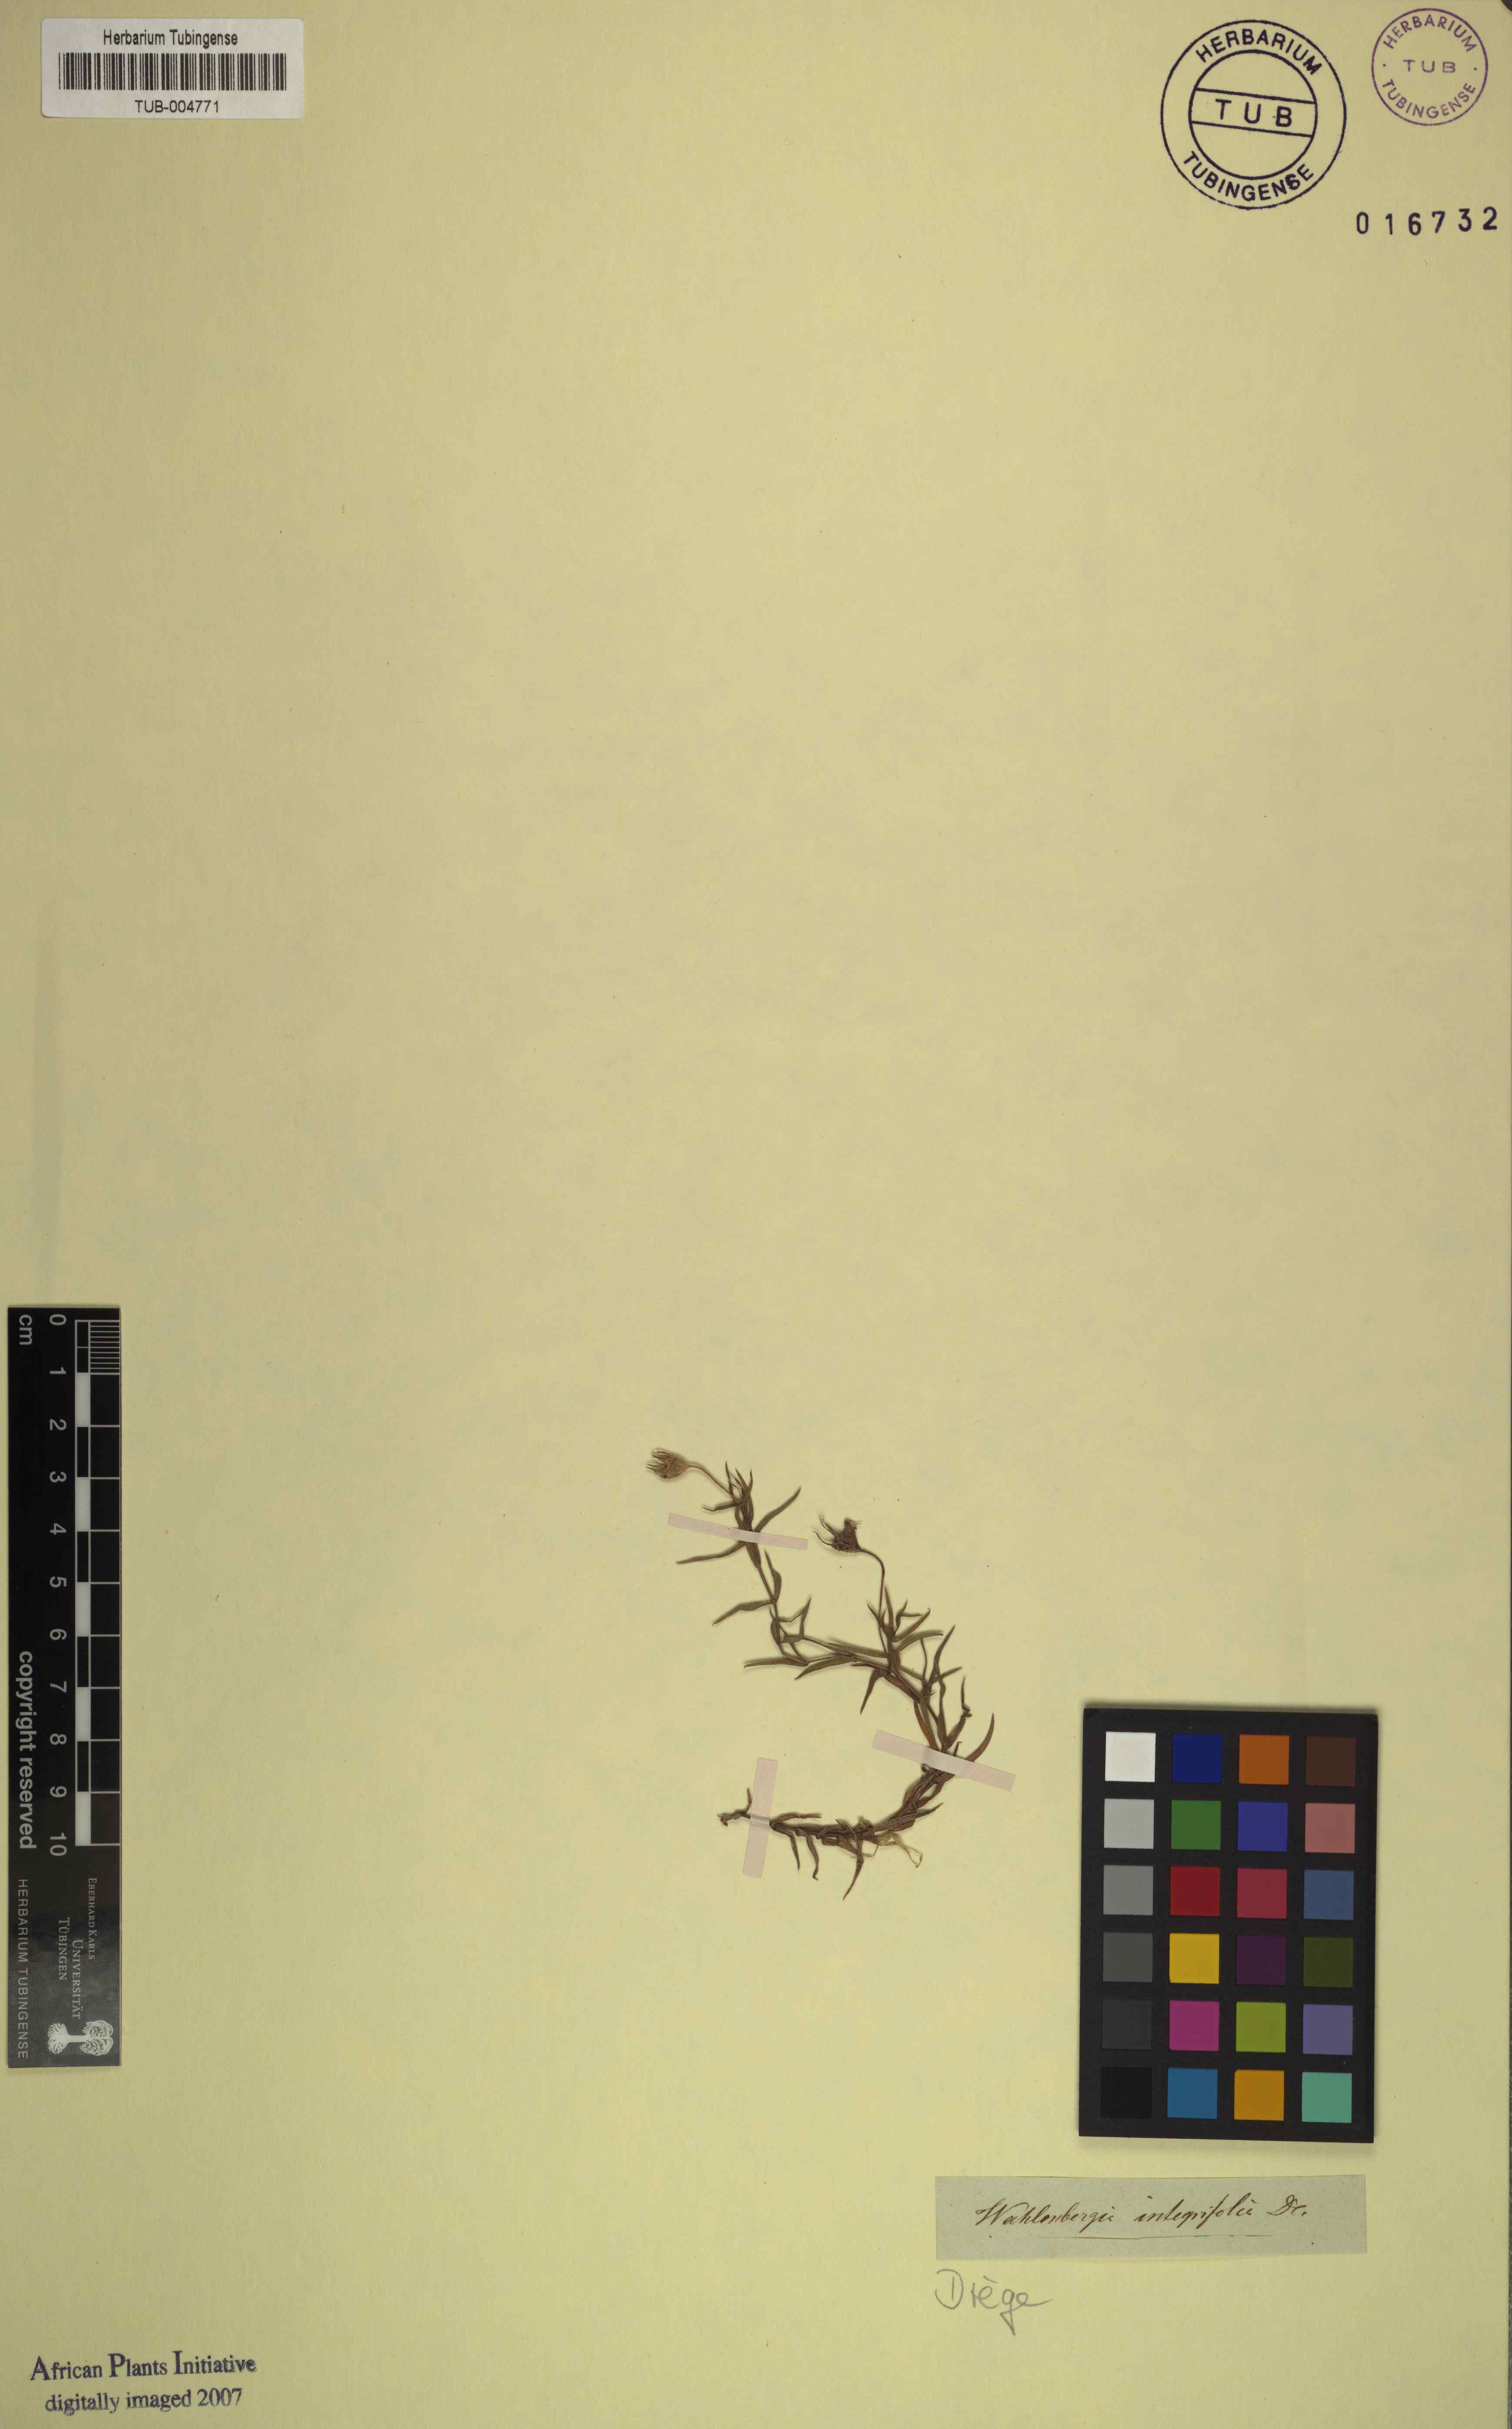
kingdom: Plantae
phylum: Tracheophyta
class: Magnoliopsida
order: Asterales
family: Campanulaceae
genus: Wahlenbergia
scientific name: Wahlenbergia stellarioides
